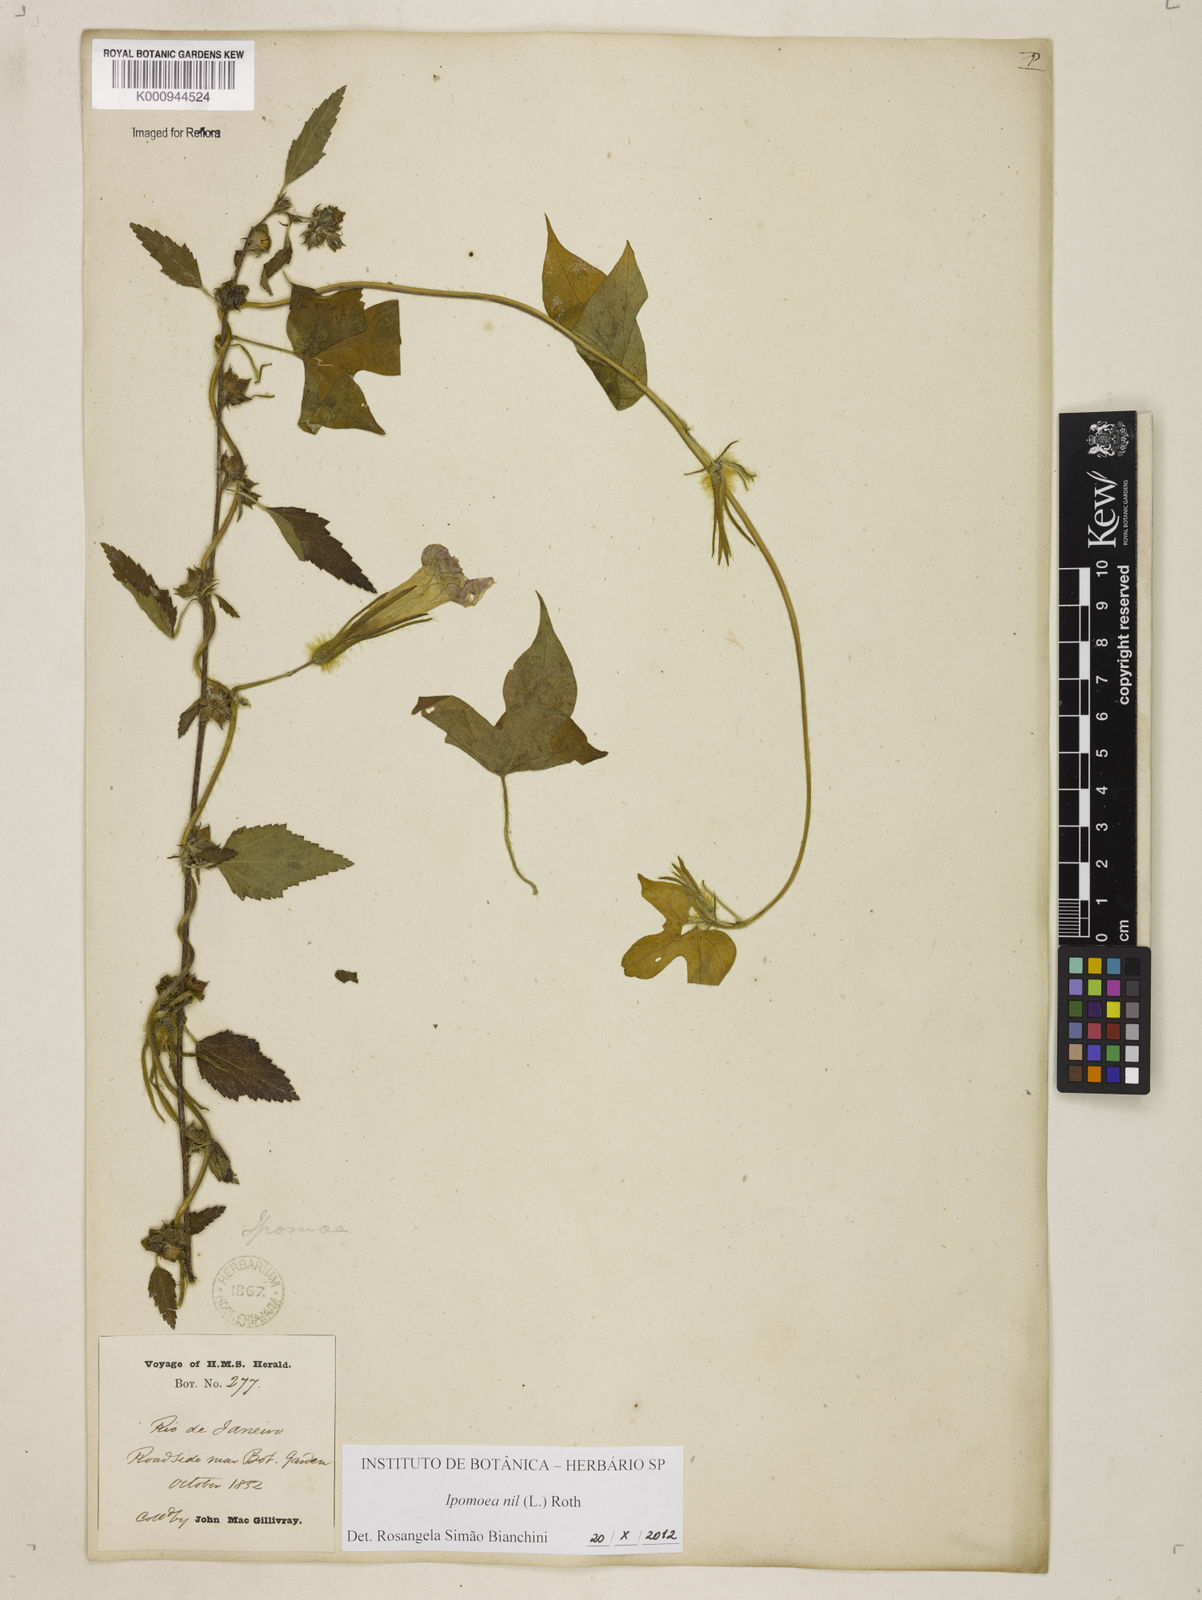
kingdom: Plantae
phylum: Tracheophyta
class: Magnoliopsida
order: Solanales
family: Convolvulaceae
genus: Ipomoea
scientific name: Ipomoea nil
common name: Japanese morning-glory
